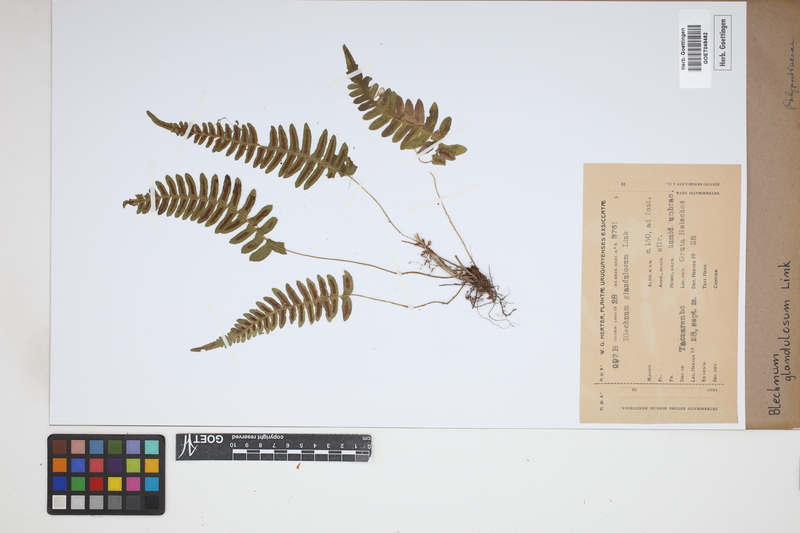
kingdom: Plantae
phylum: Tracheophyta
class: Polypodiopsida
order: Polypodiales
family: Blechnaceae
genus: Blechnum
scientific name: Blechnum appendiculatum
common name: Palm fern
